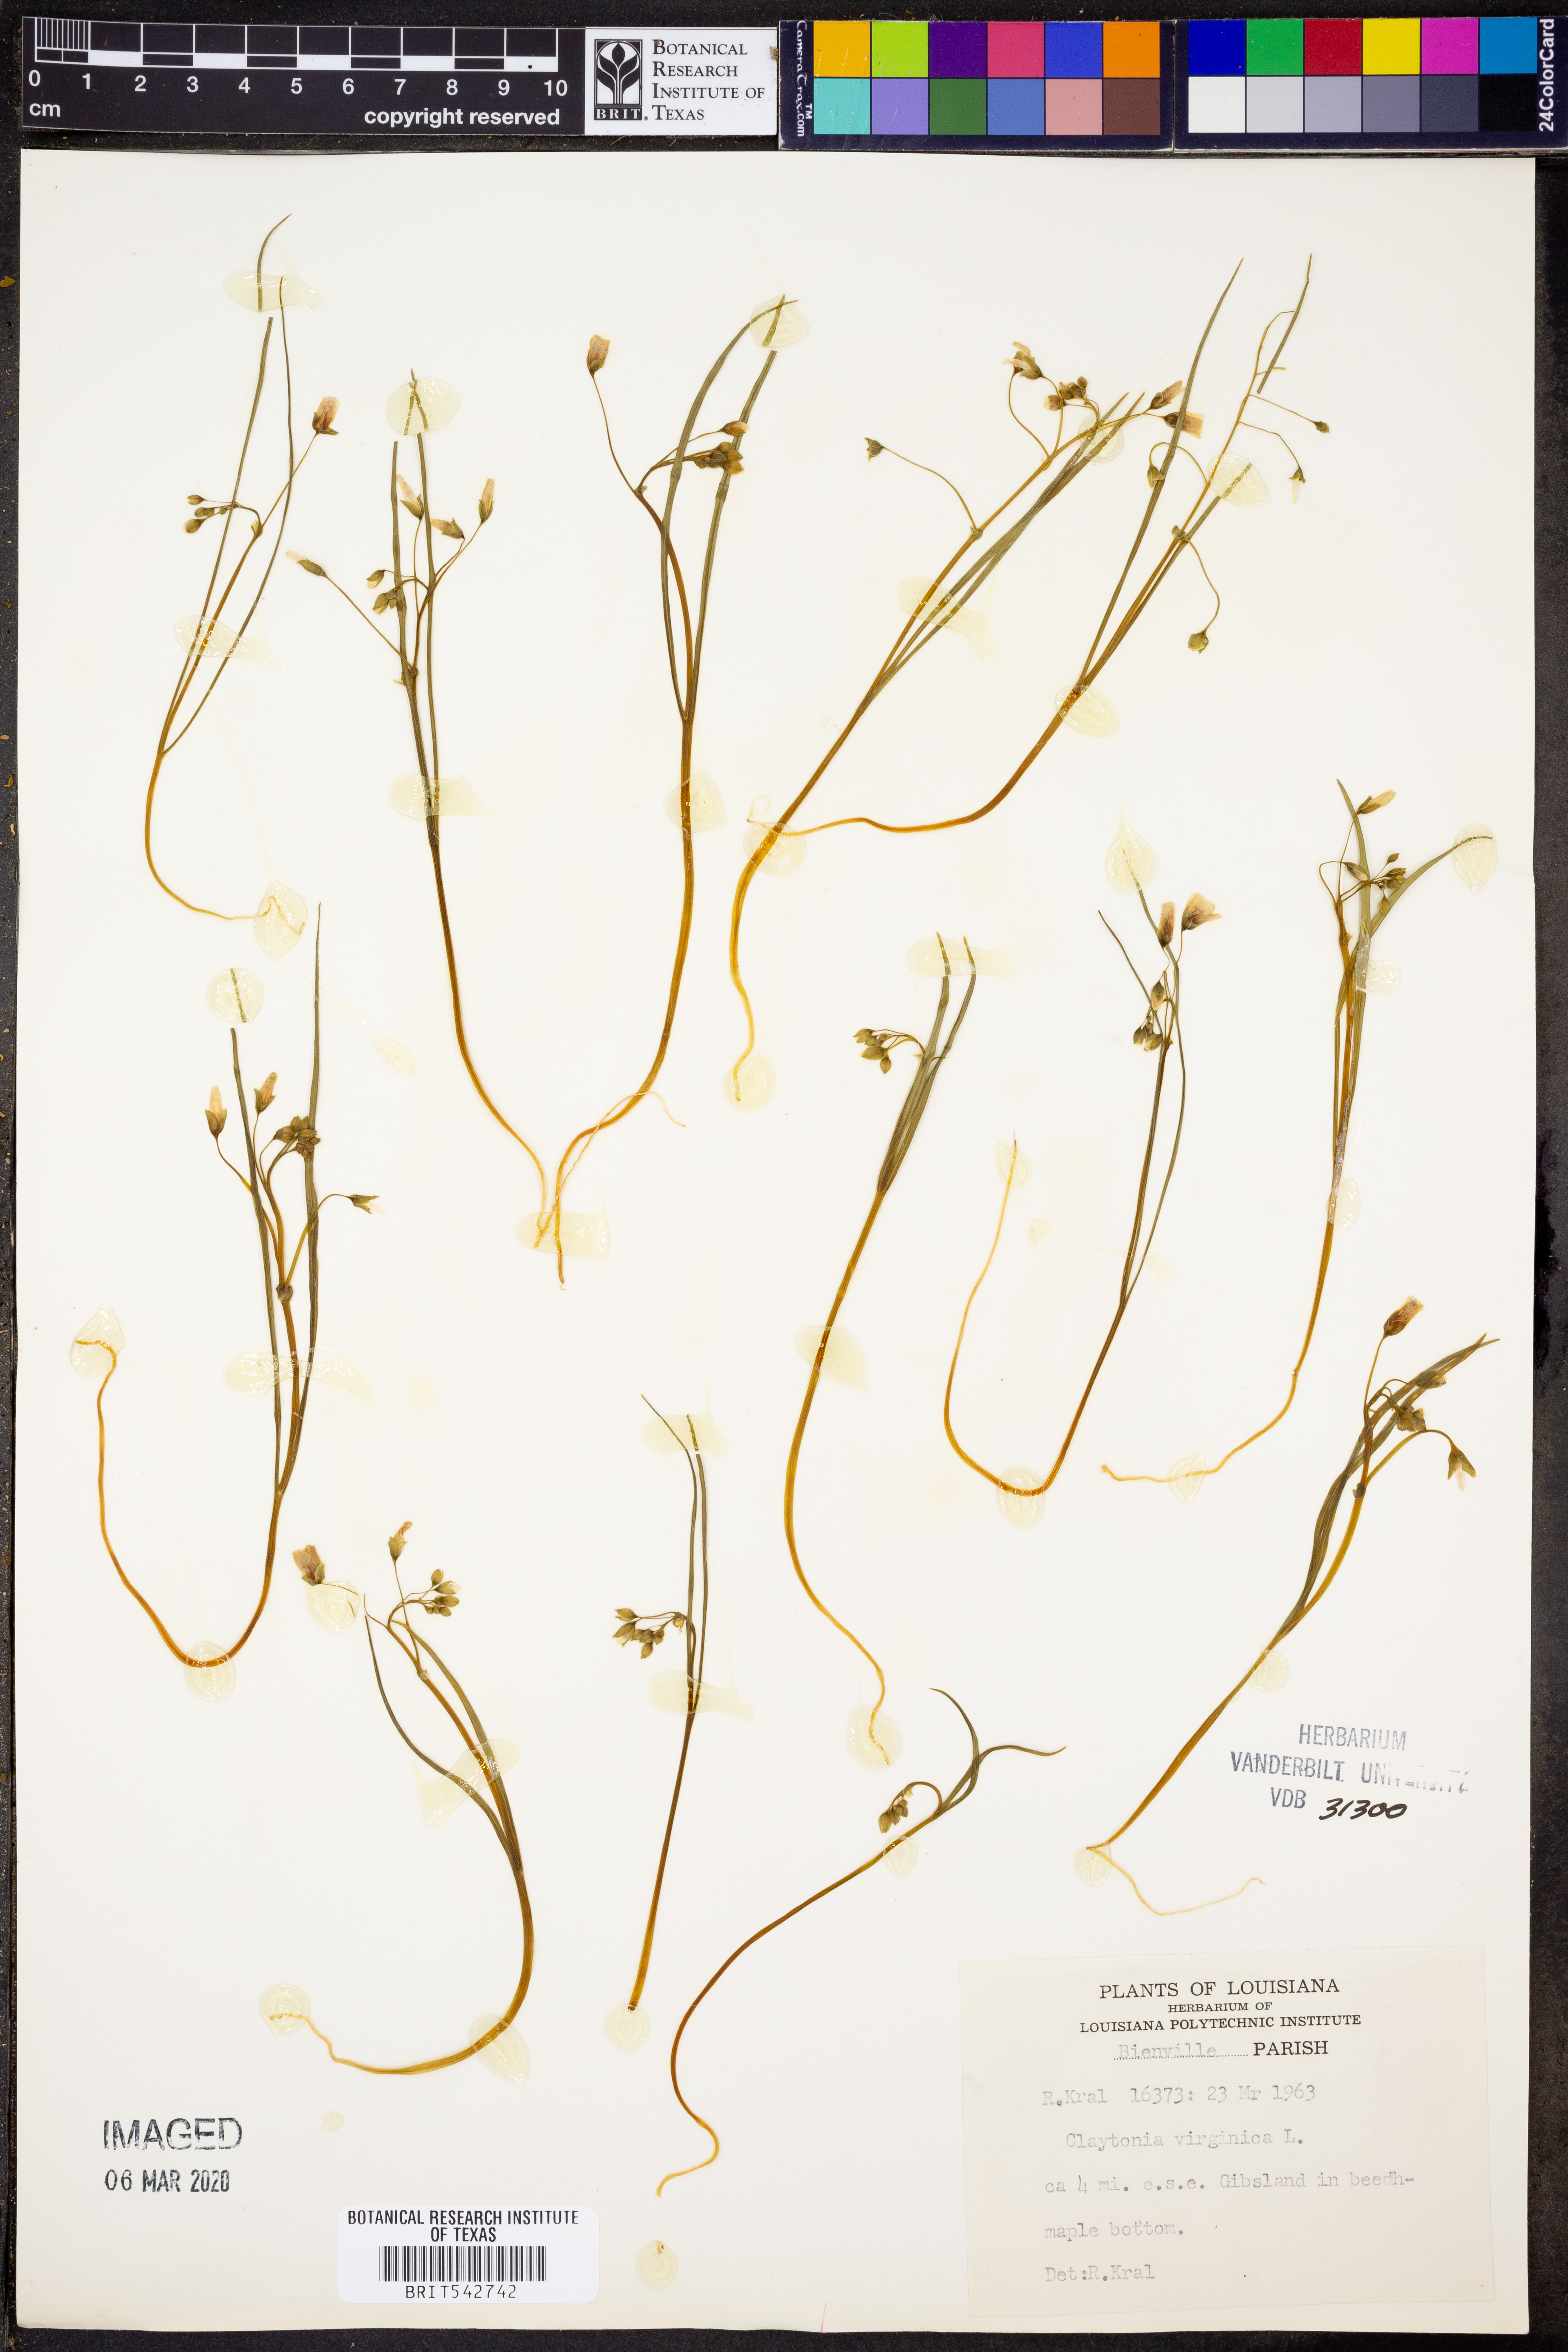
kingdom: Plantae
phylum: Tracheophyta
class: Magnoliopsida
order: Caryophyllales
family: Montiaceae
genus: Claytonia
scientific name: Claytonia virginica
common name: Virginia springbeauty
